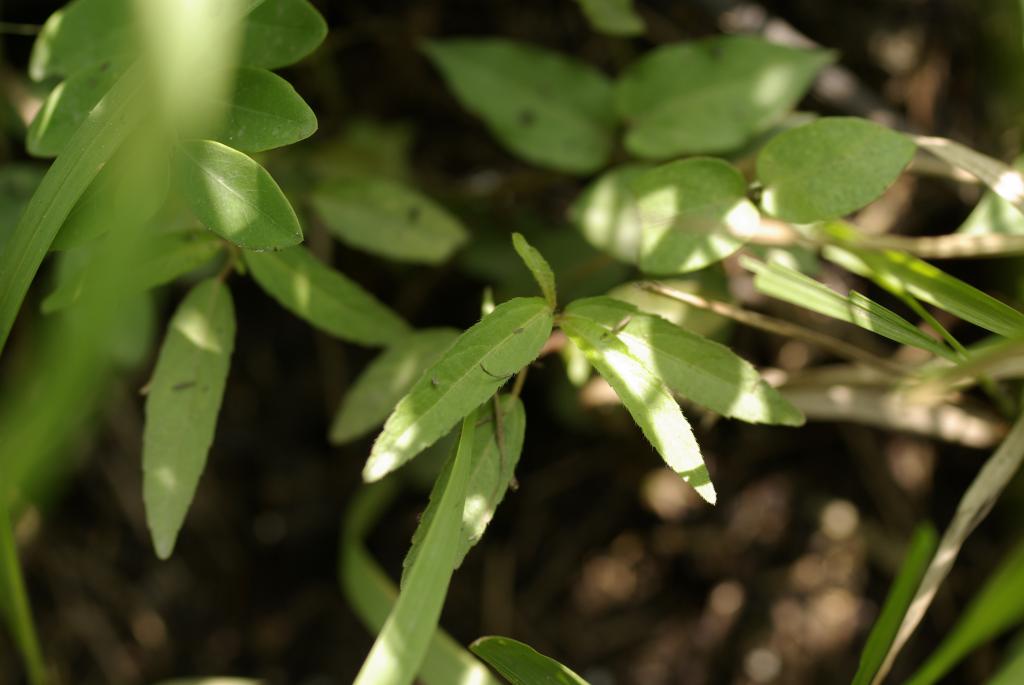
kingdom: Plantae
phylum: Tracheophyta
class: Magnoliopsida
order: Malpighiales
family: Euphorbiaceae
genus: Acalypha
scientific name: Acalypha australis
